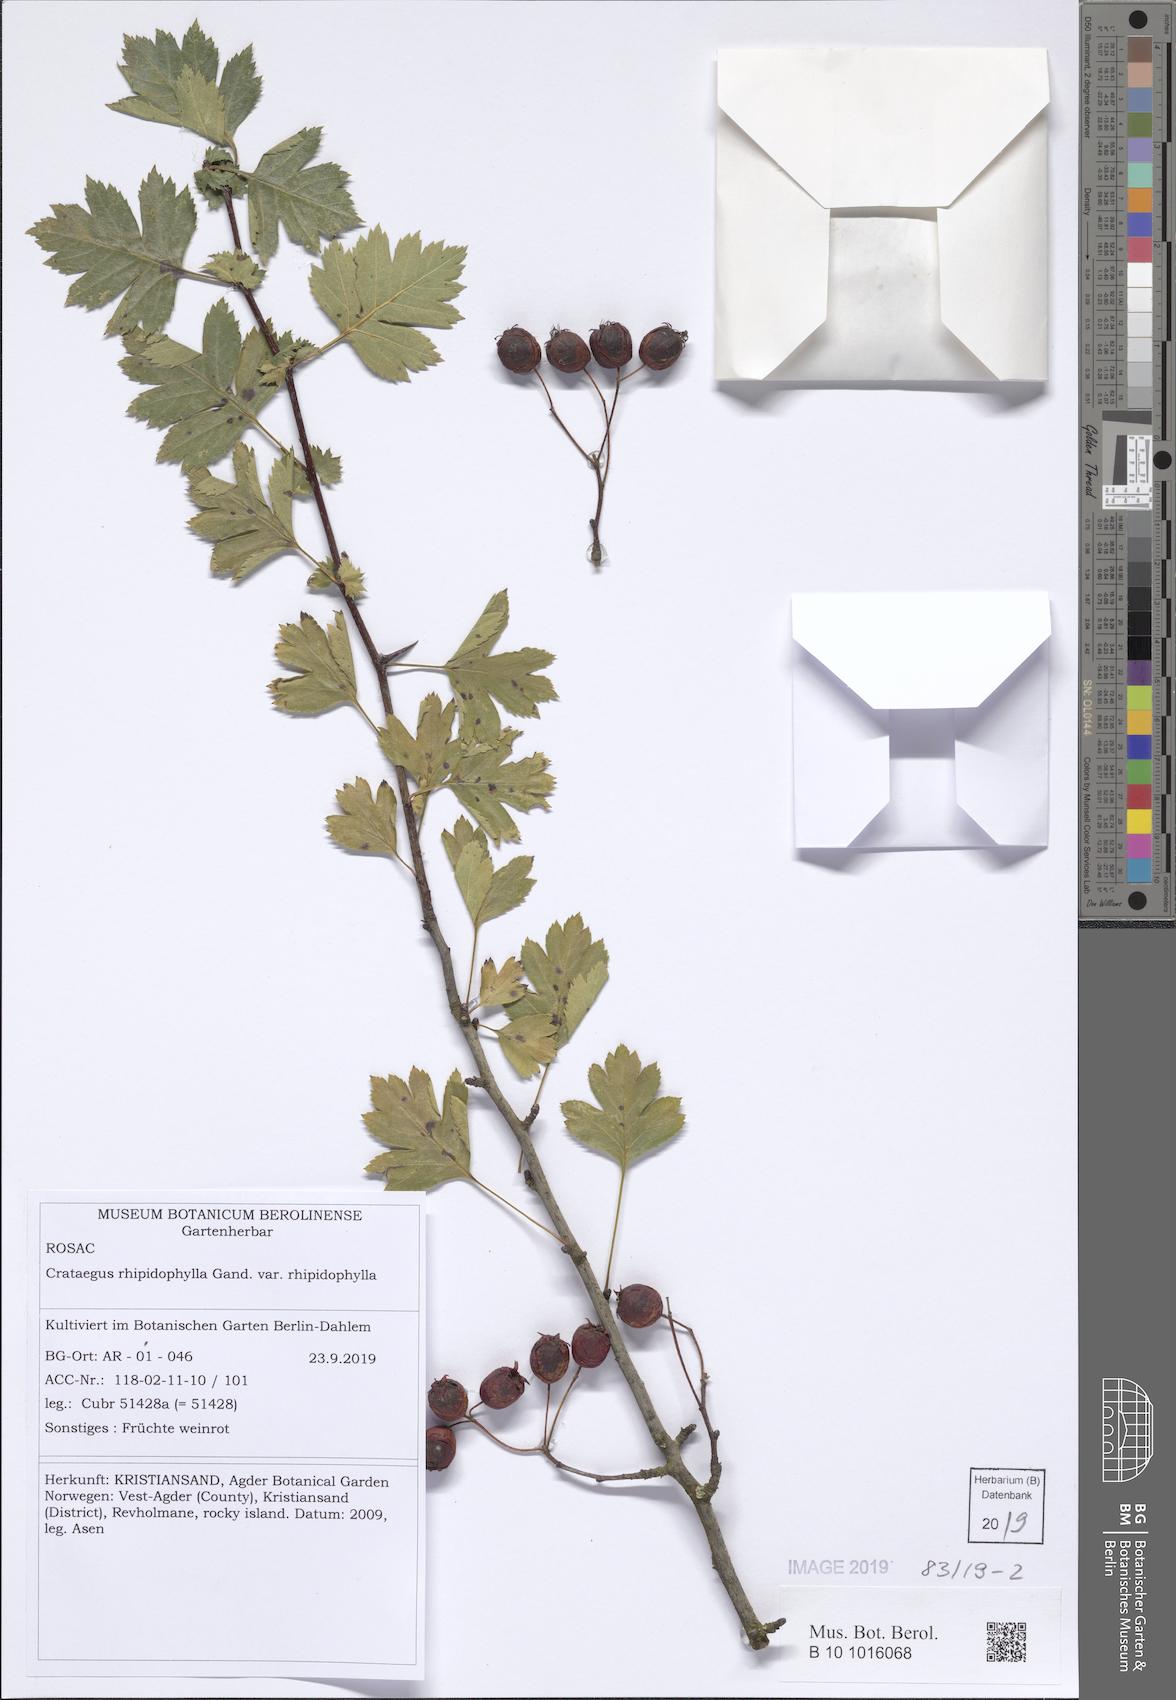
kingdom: Plantae
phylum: Tracheophyta
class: Magnoliopsida
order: Rosales
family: Rosaceae
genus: Crataegus
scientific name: Crataegus rhipidophylla
